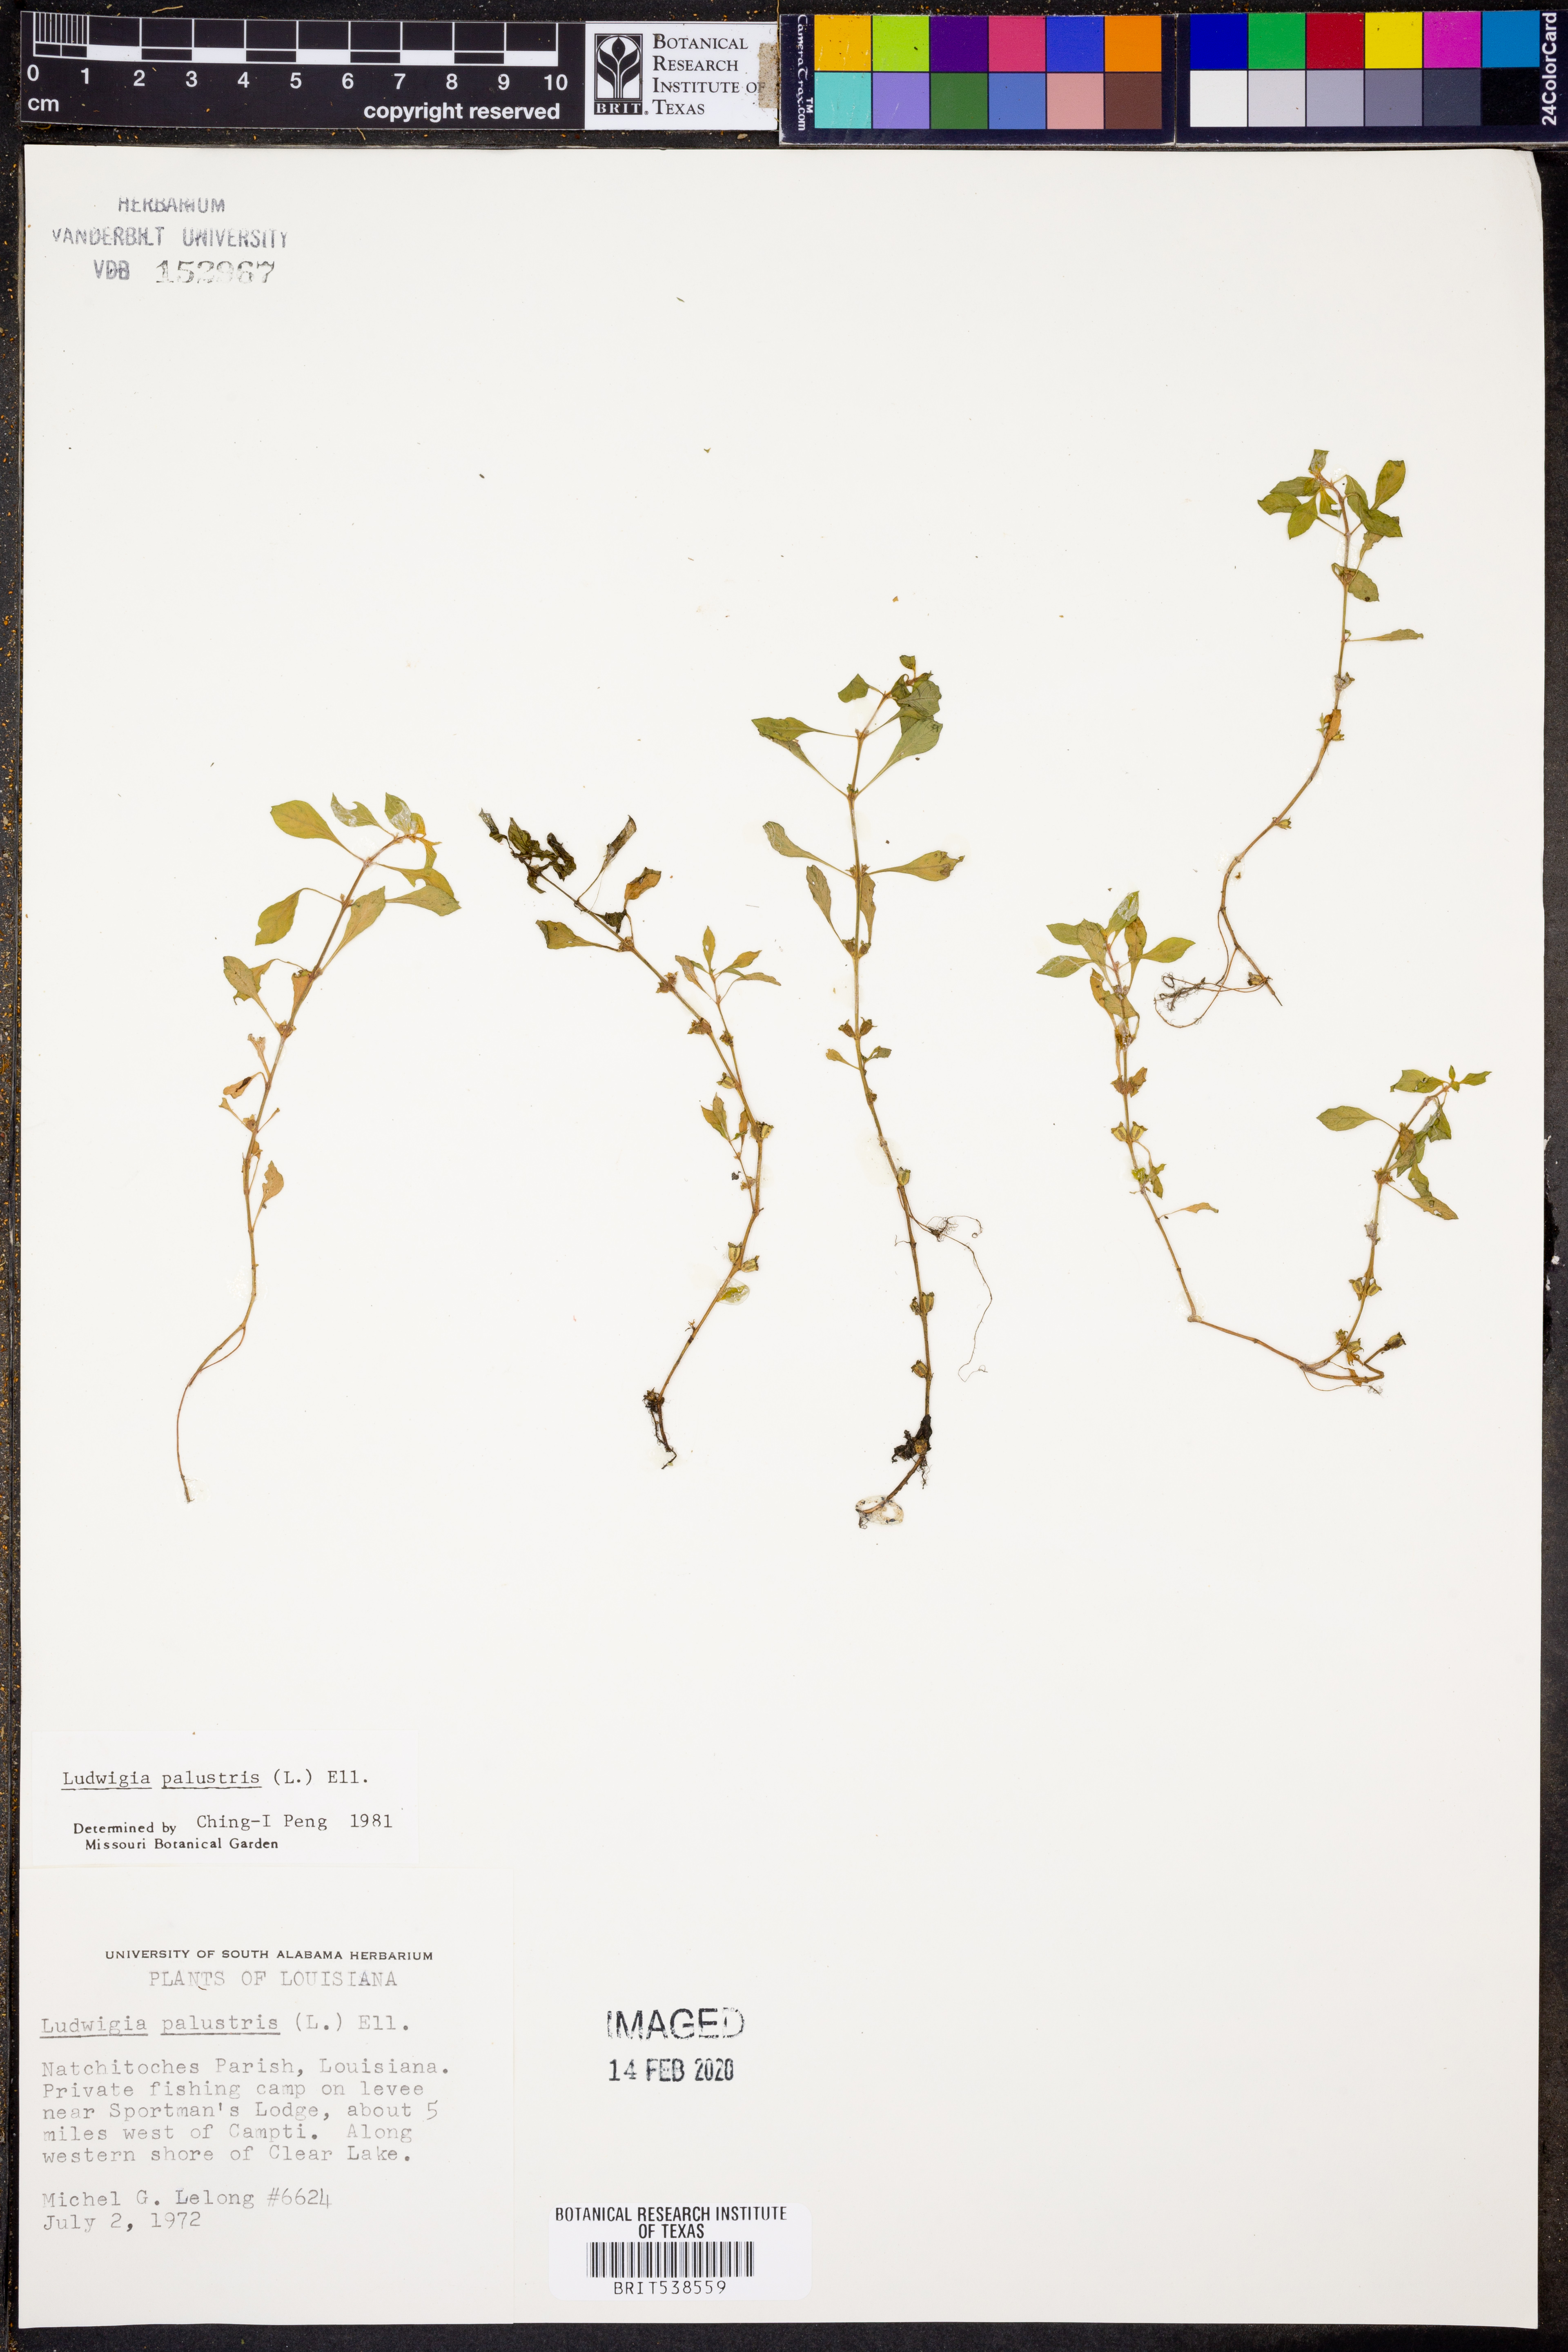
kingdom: Plantae
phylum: Tracheophyta
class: Magnoliopsida
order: Myrtales
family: Onagraceae
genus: Ludwigia
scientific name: Ludwigia palustris
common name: Hampshire-purslane
